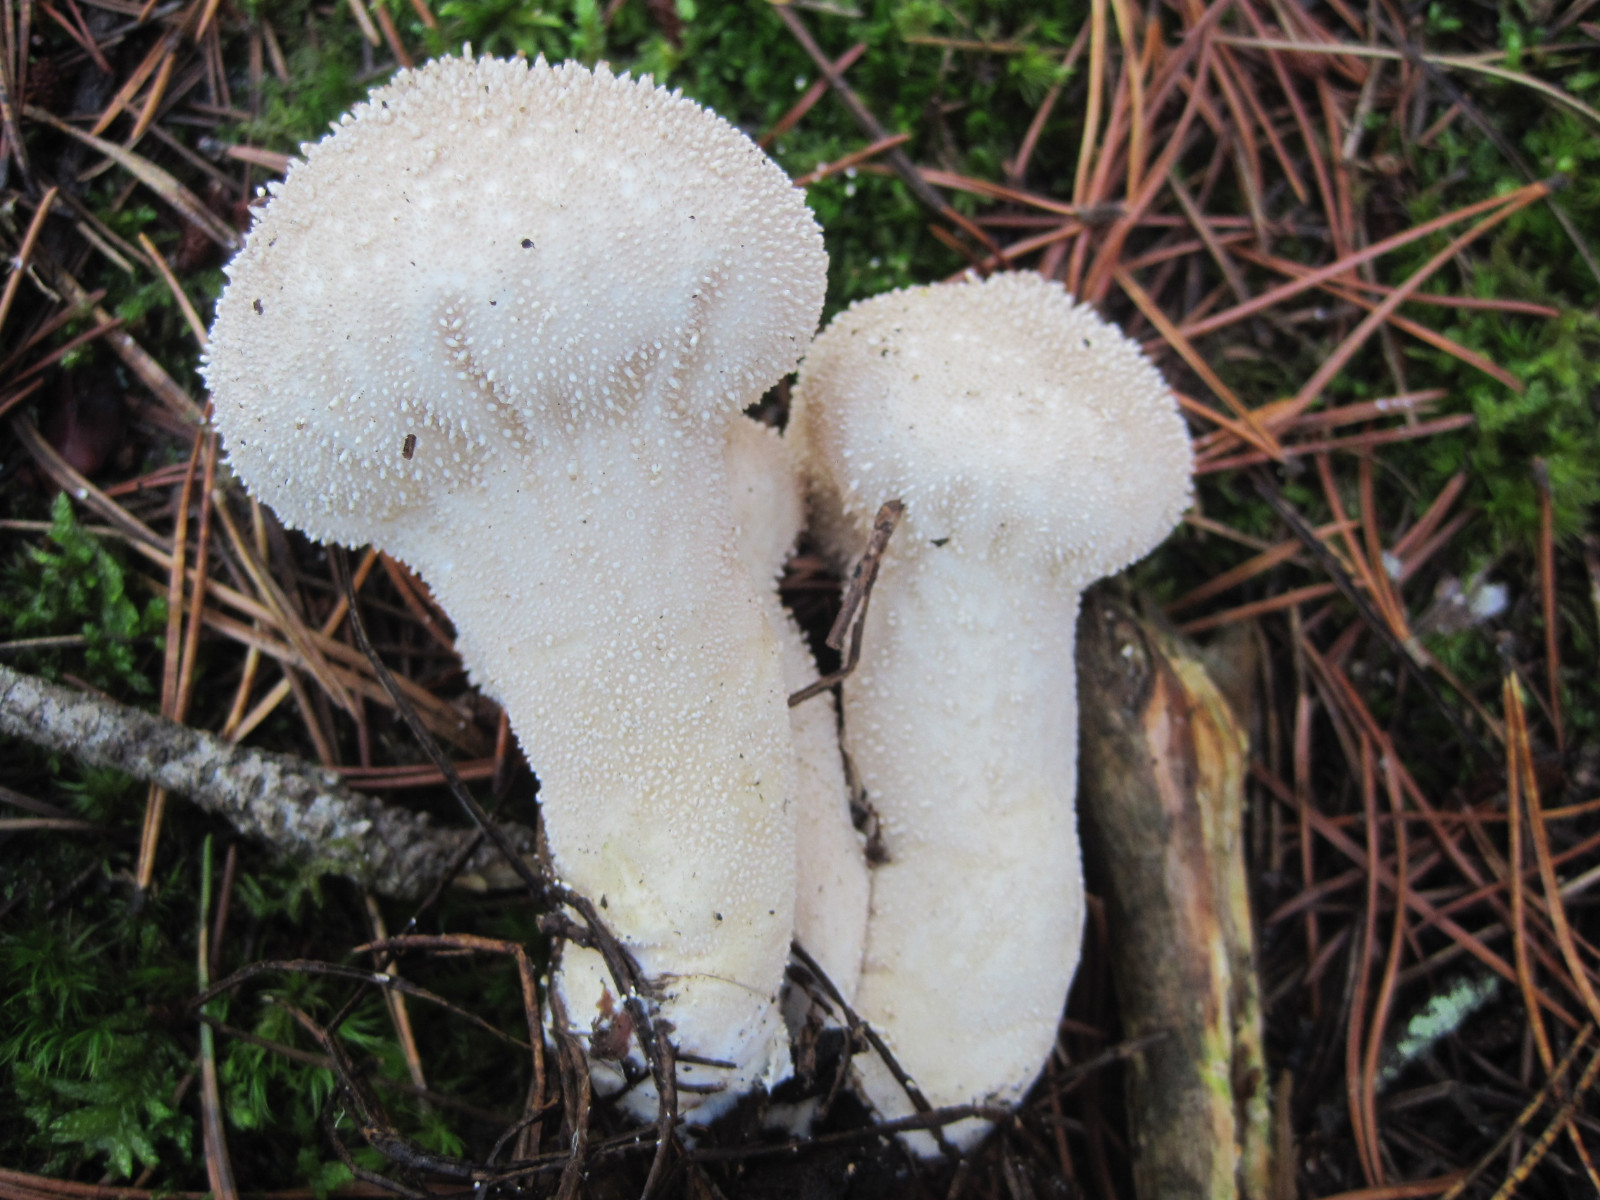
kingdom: Fungi
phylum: Basidiomycota
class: Agaricomycetes
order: Agaricales
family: Lycoperdaceae
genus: Lycoperdon
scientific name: Lycoperdon perlatum
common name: krystal-støvbold
